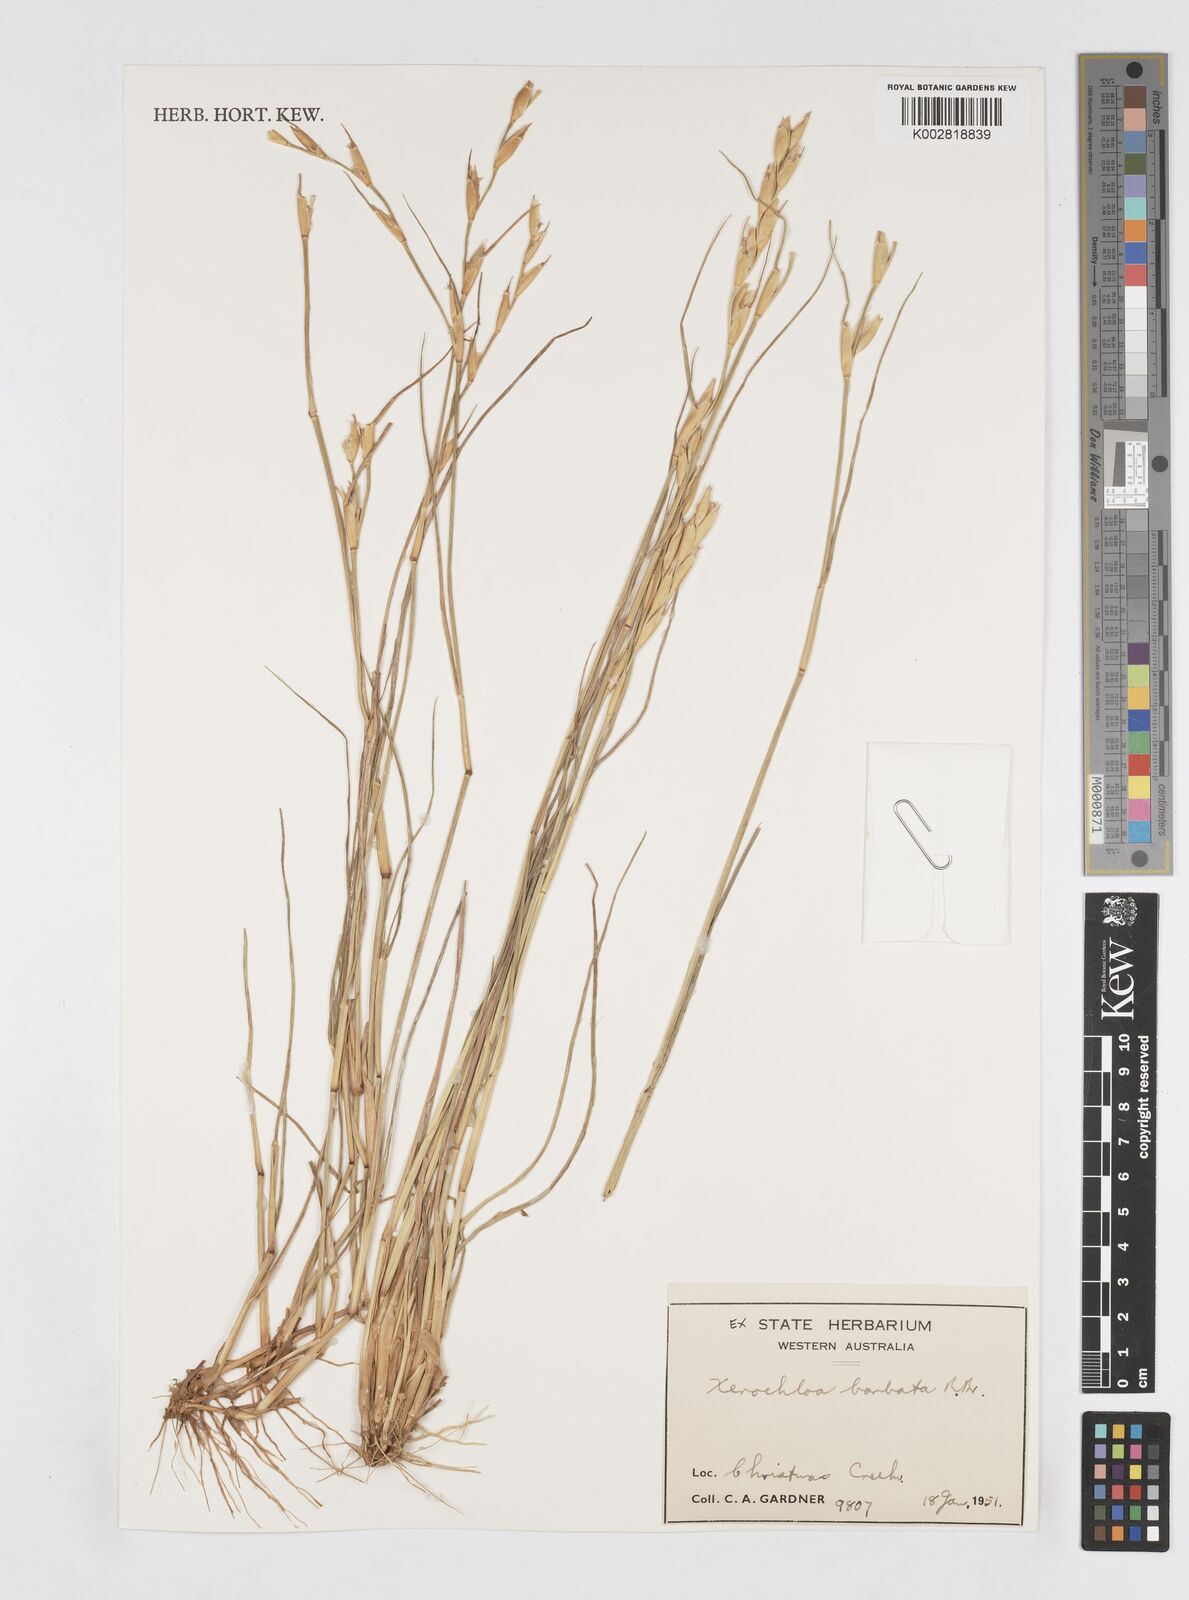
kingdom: Plantae
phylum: Tracheophyta
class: Liliopsida
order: Poales
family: Poaceae
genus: Xerochloa
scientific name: Xerochloa barbata
